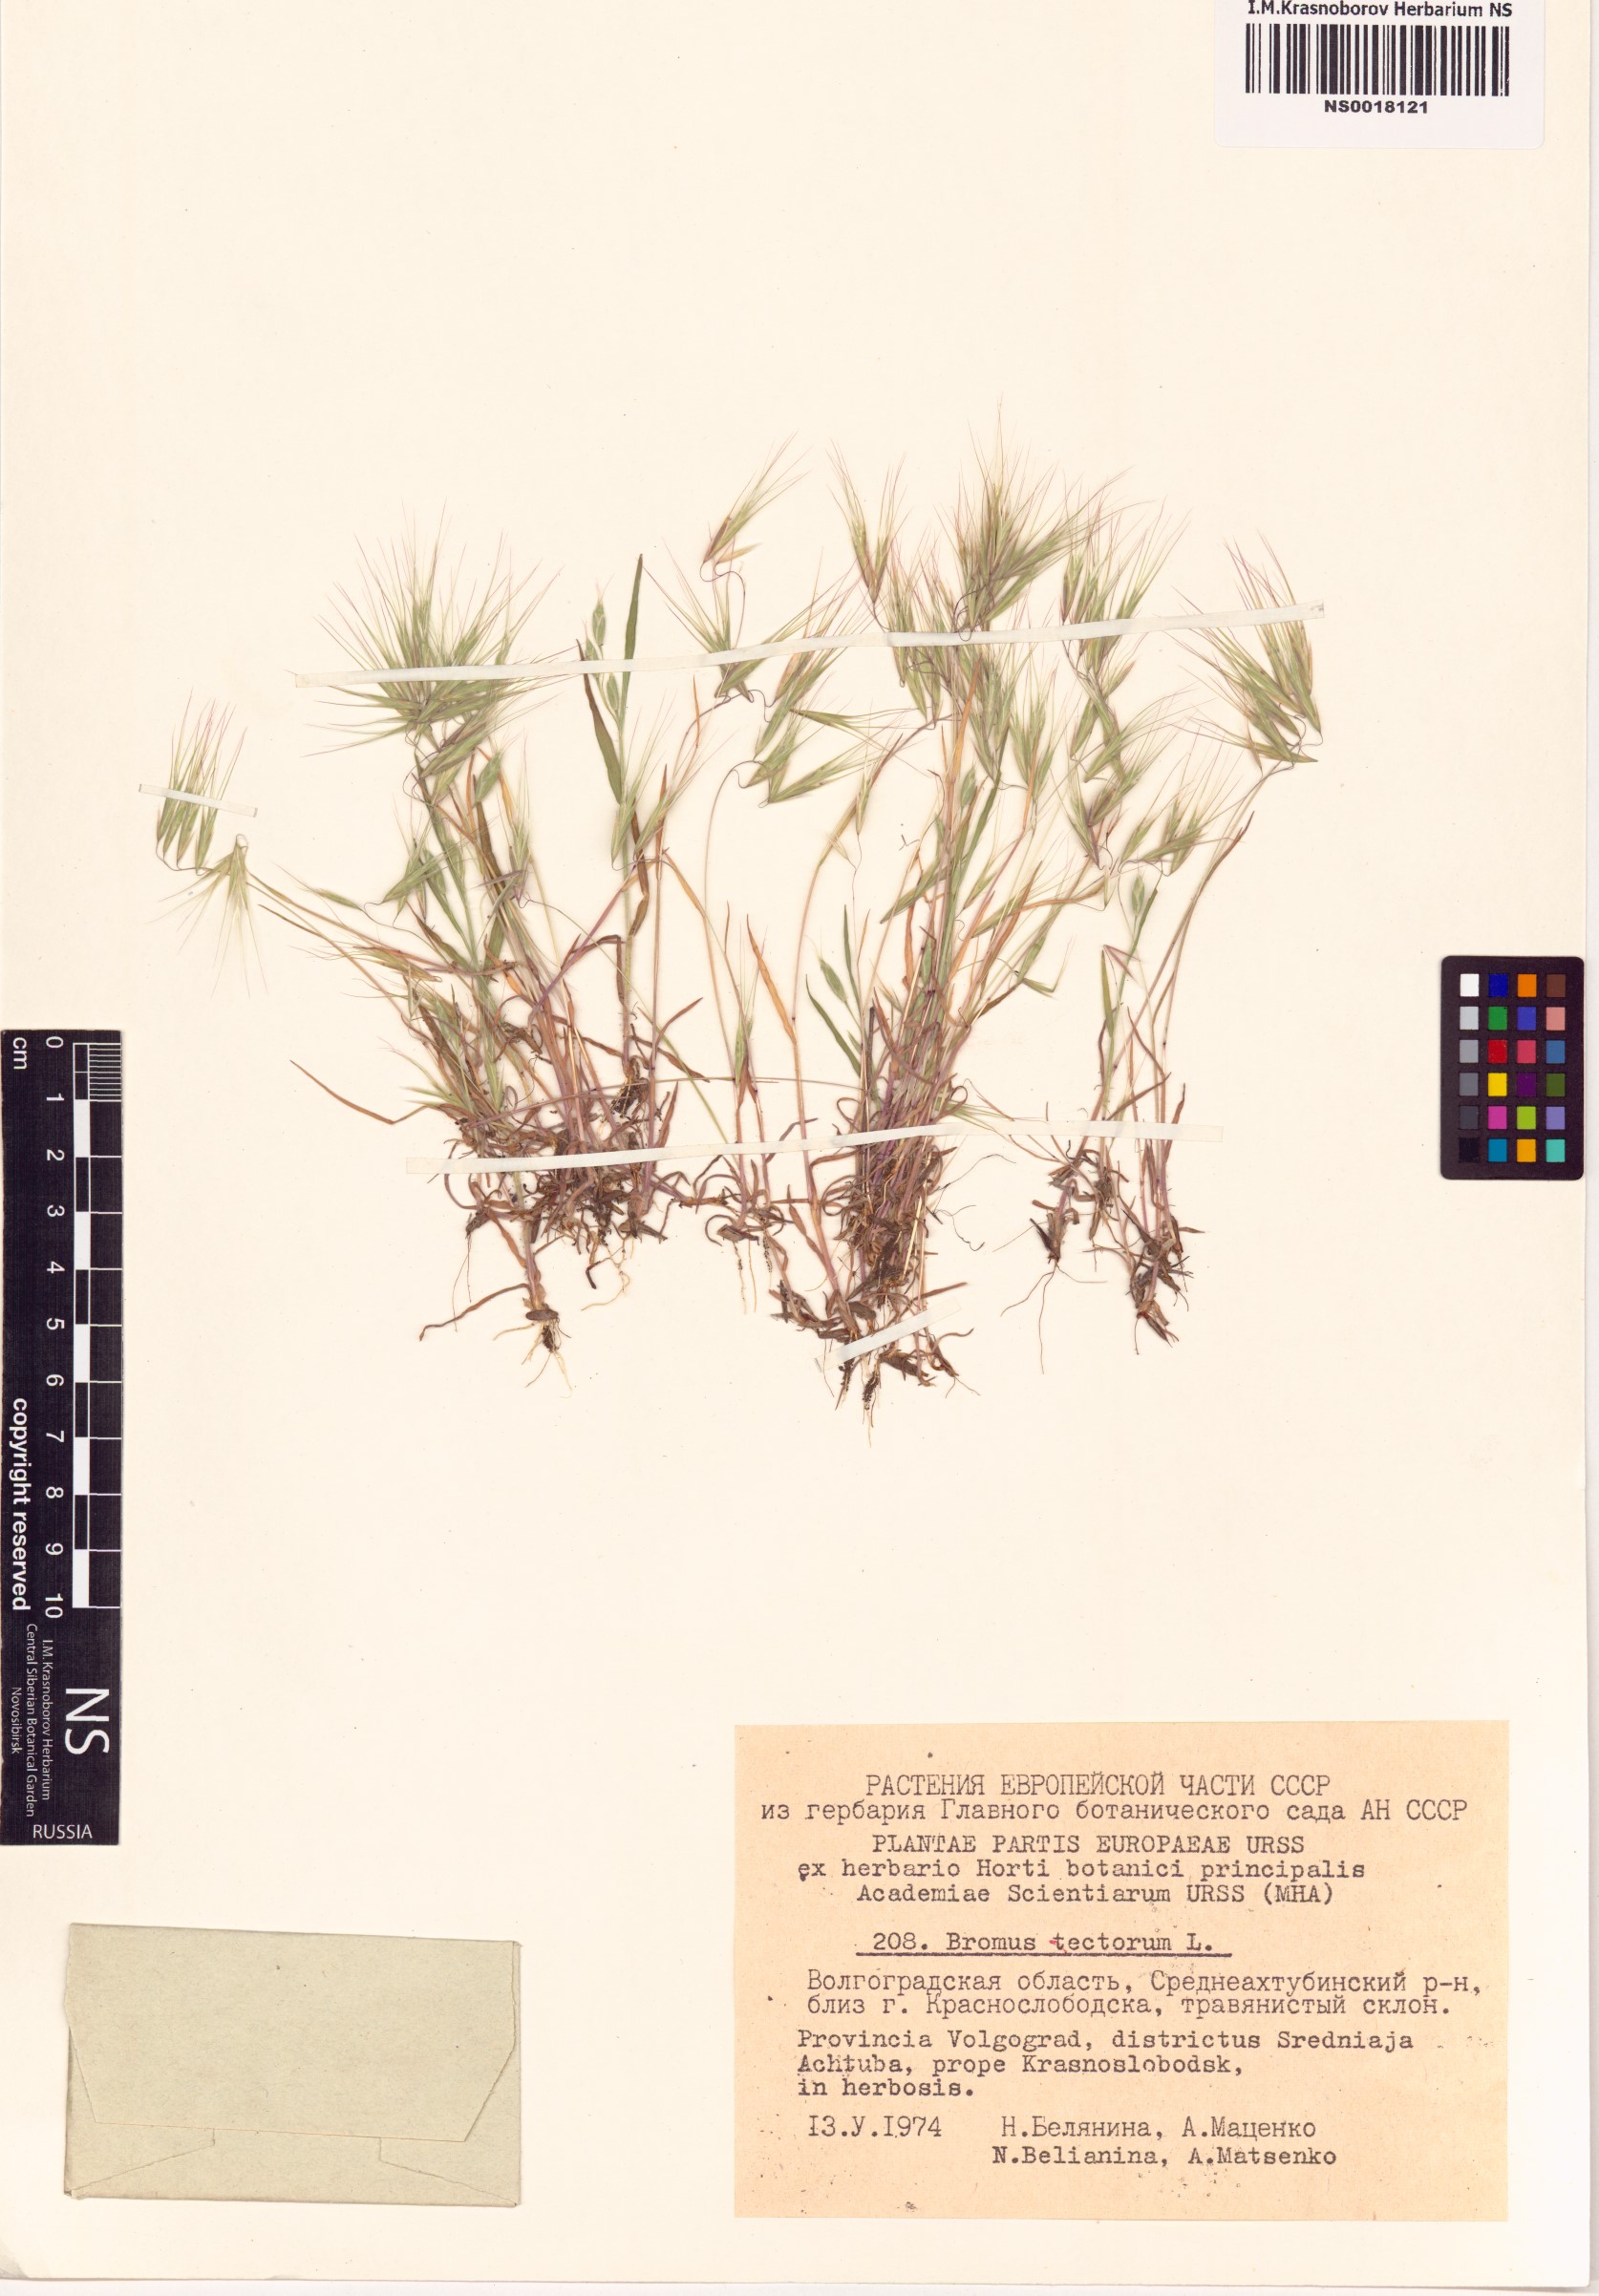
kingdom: Plantae
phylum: Tracheophyta
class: Liliopsida
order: Poales
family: Poaceae
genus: Bromus
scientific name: Bromus tectorum
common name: Cheatgrass
